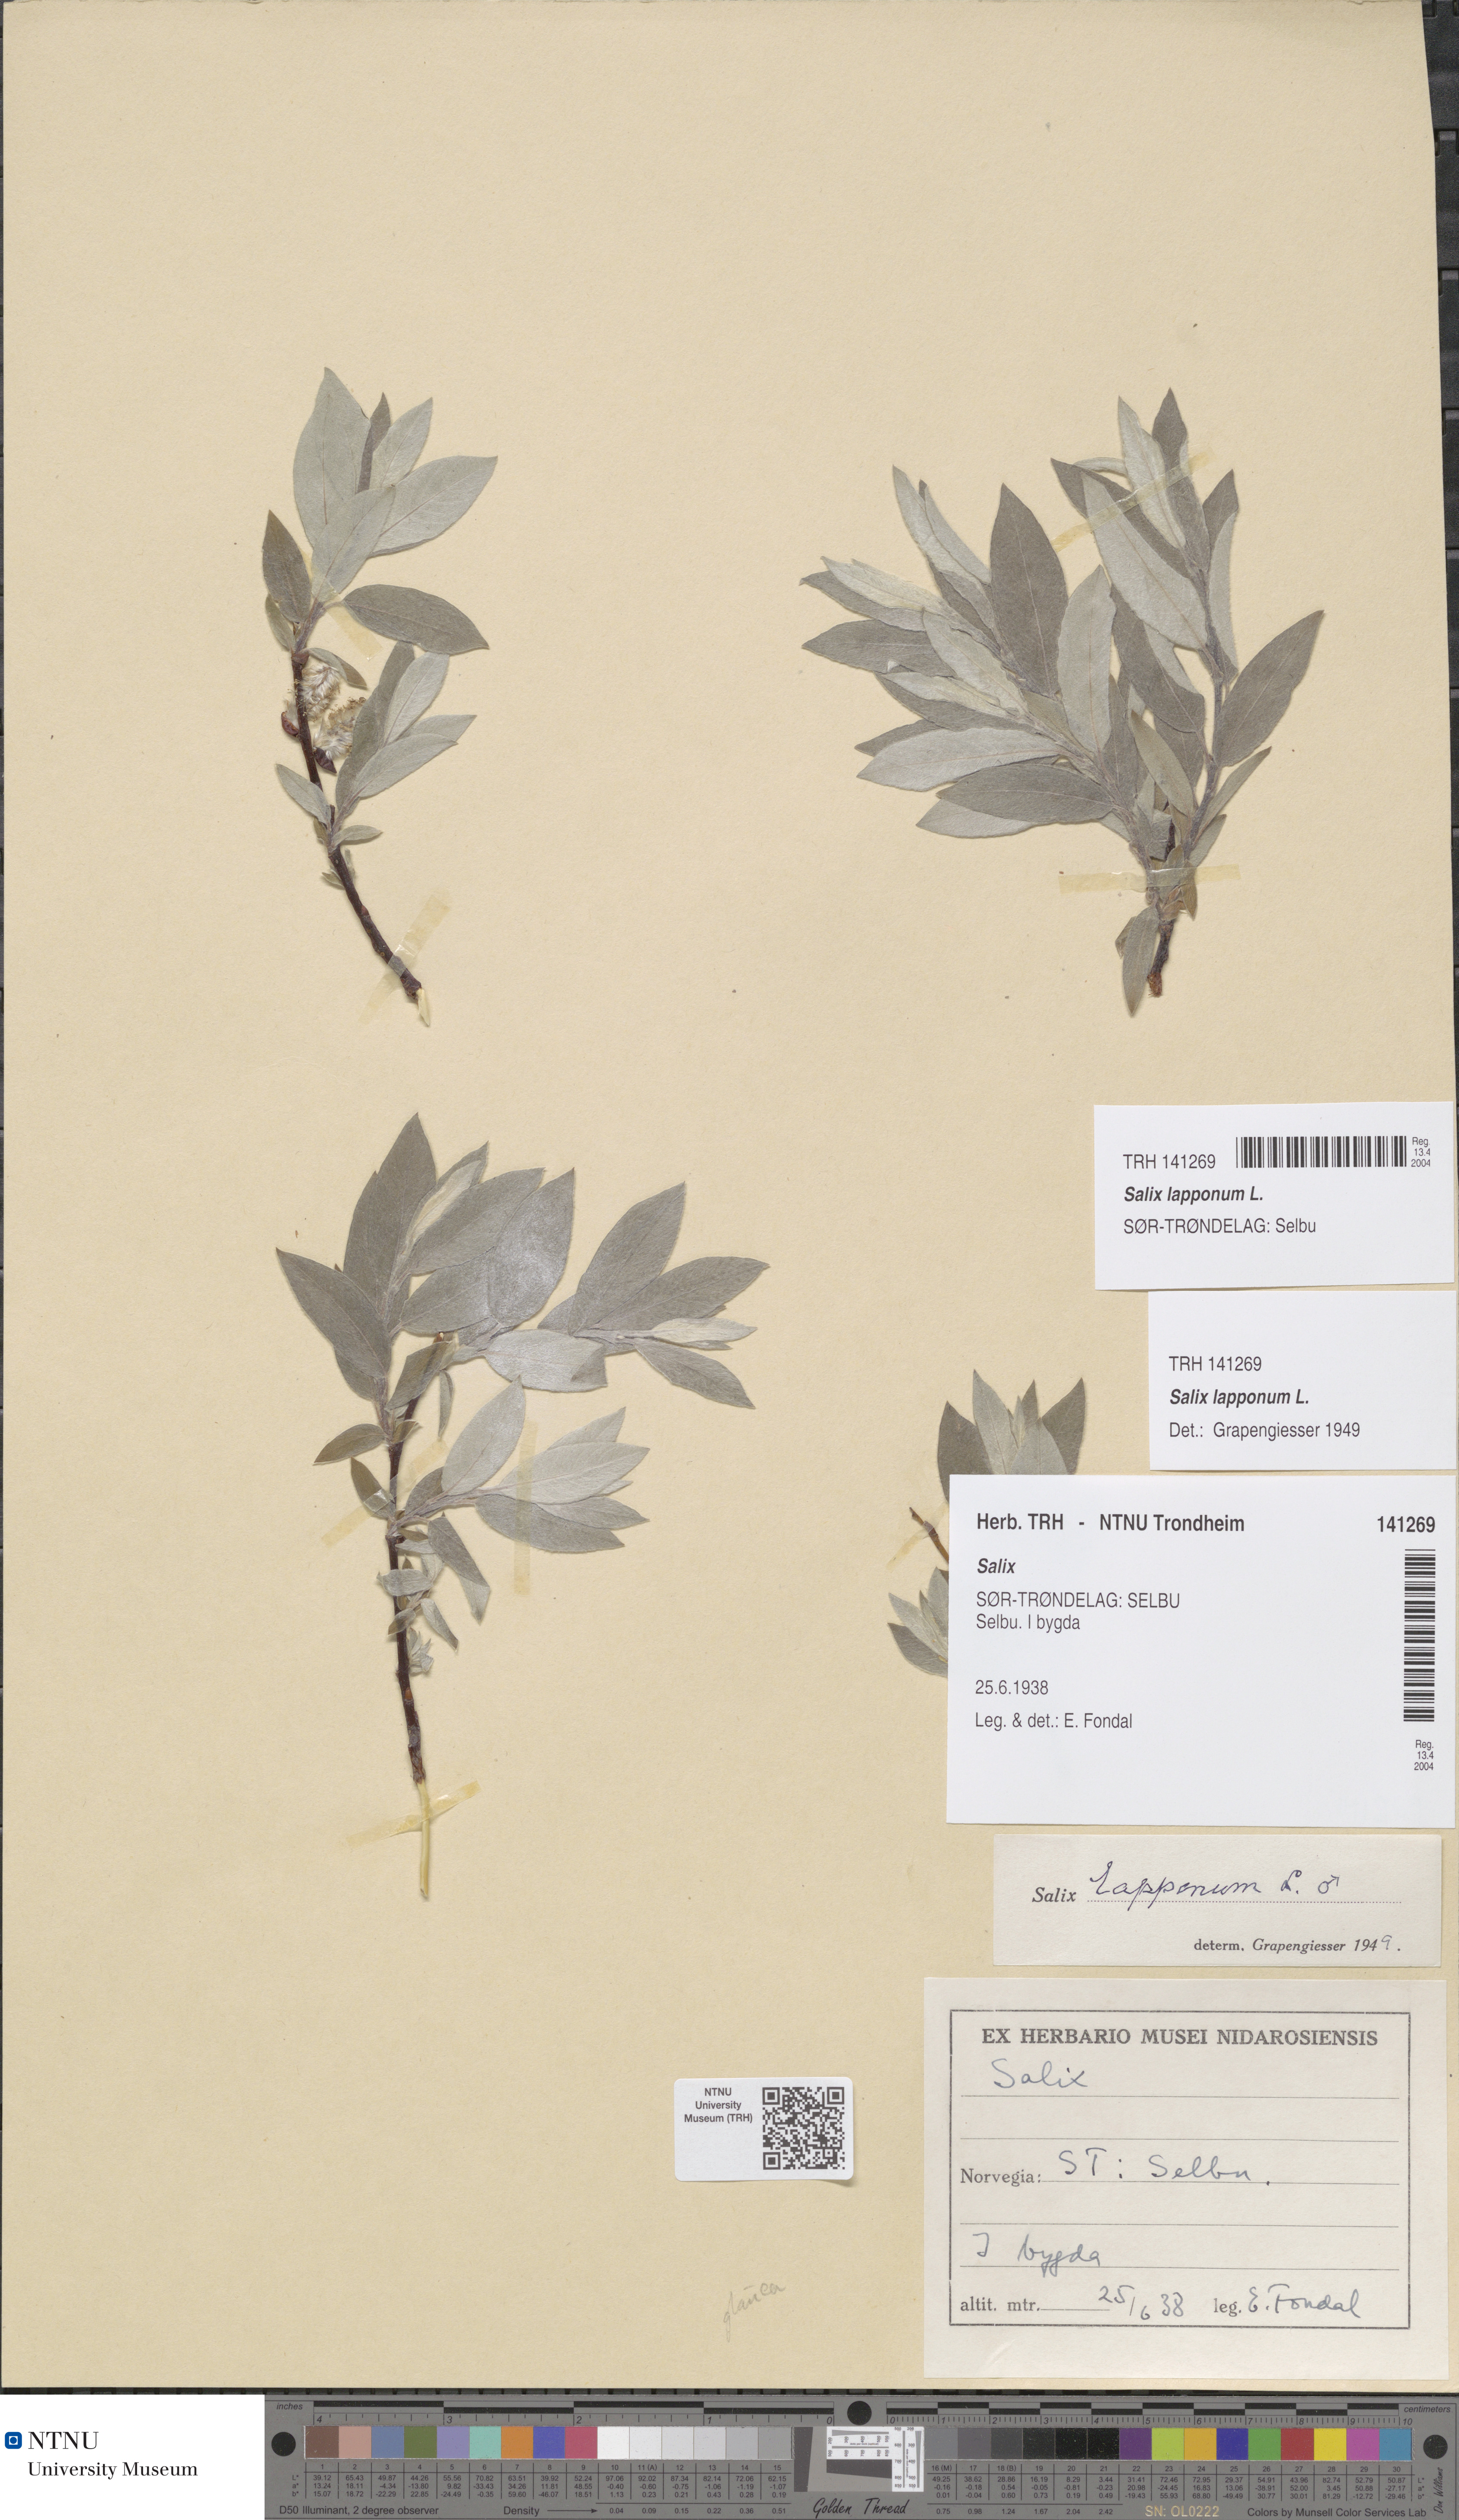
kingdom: Plantae
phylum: Tracheophyta
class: Magnoliopsida
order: Malpighiales
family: Salicaceae
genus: Salix
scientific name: Salix lapponum
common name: Downy willow
